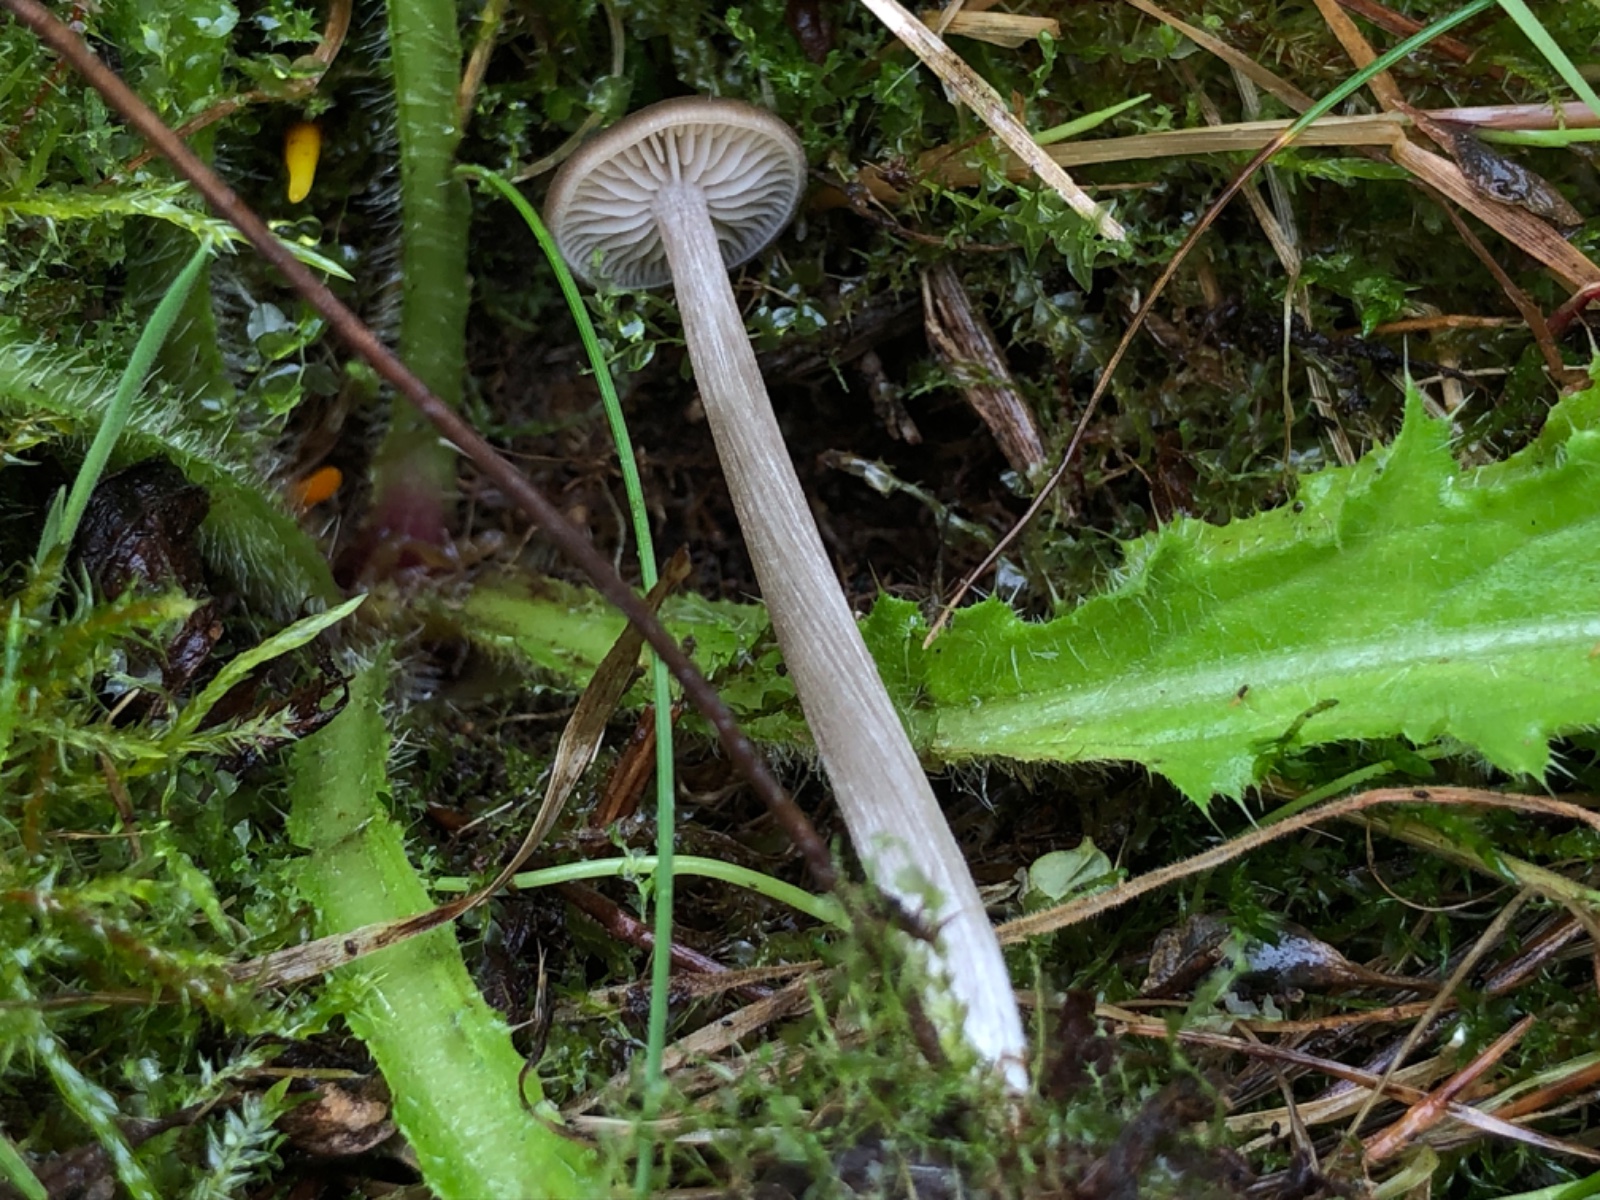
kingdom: Fungi
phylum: Basidiomycota
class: Agaricomycetes
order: Agaricales
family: Entolomataceae
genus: Entoloma
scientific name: Entoloma
